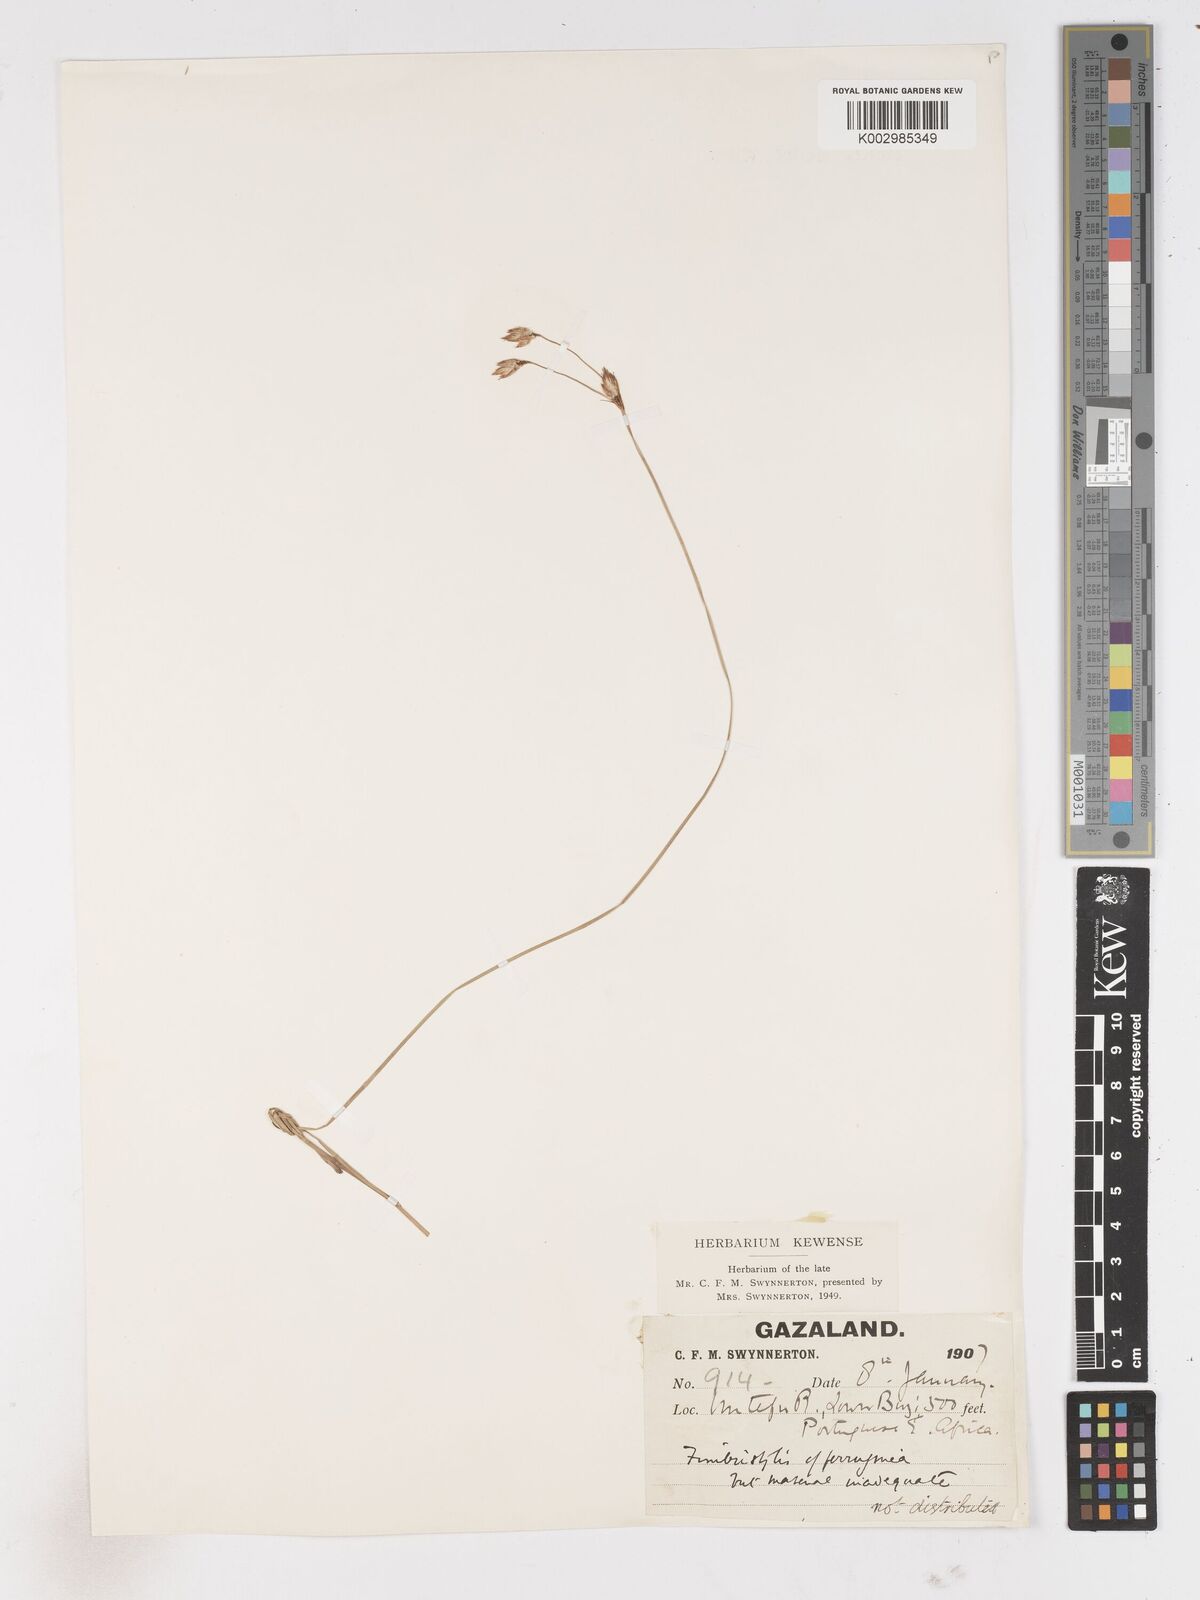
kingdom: Plantae
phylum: Tracheophyta
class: Liliopsida
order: Poales
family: Cyperaceae
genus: Abildgaardia
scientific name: Abildgaardia triflora
